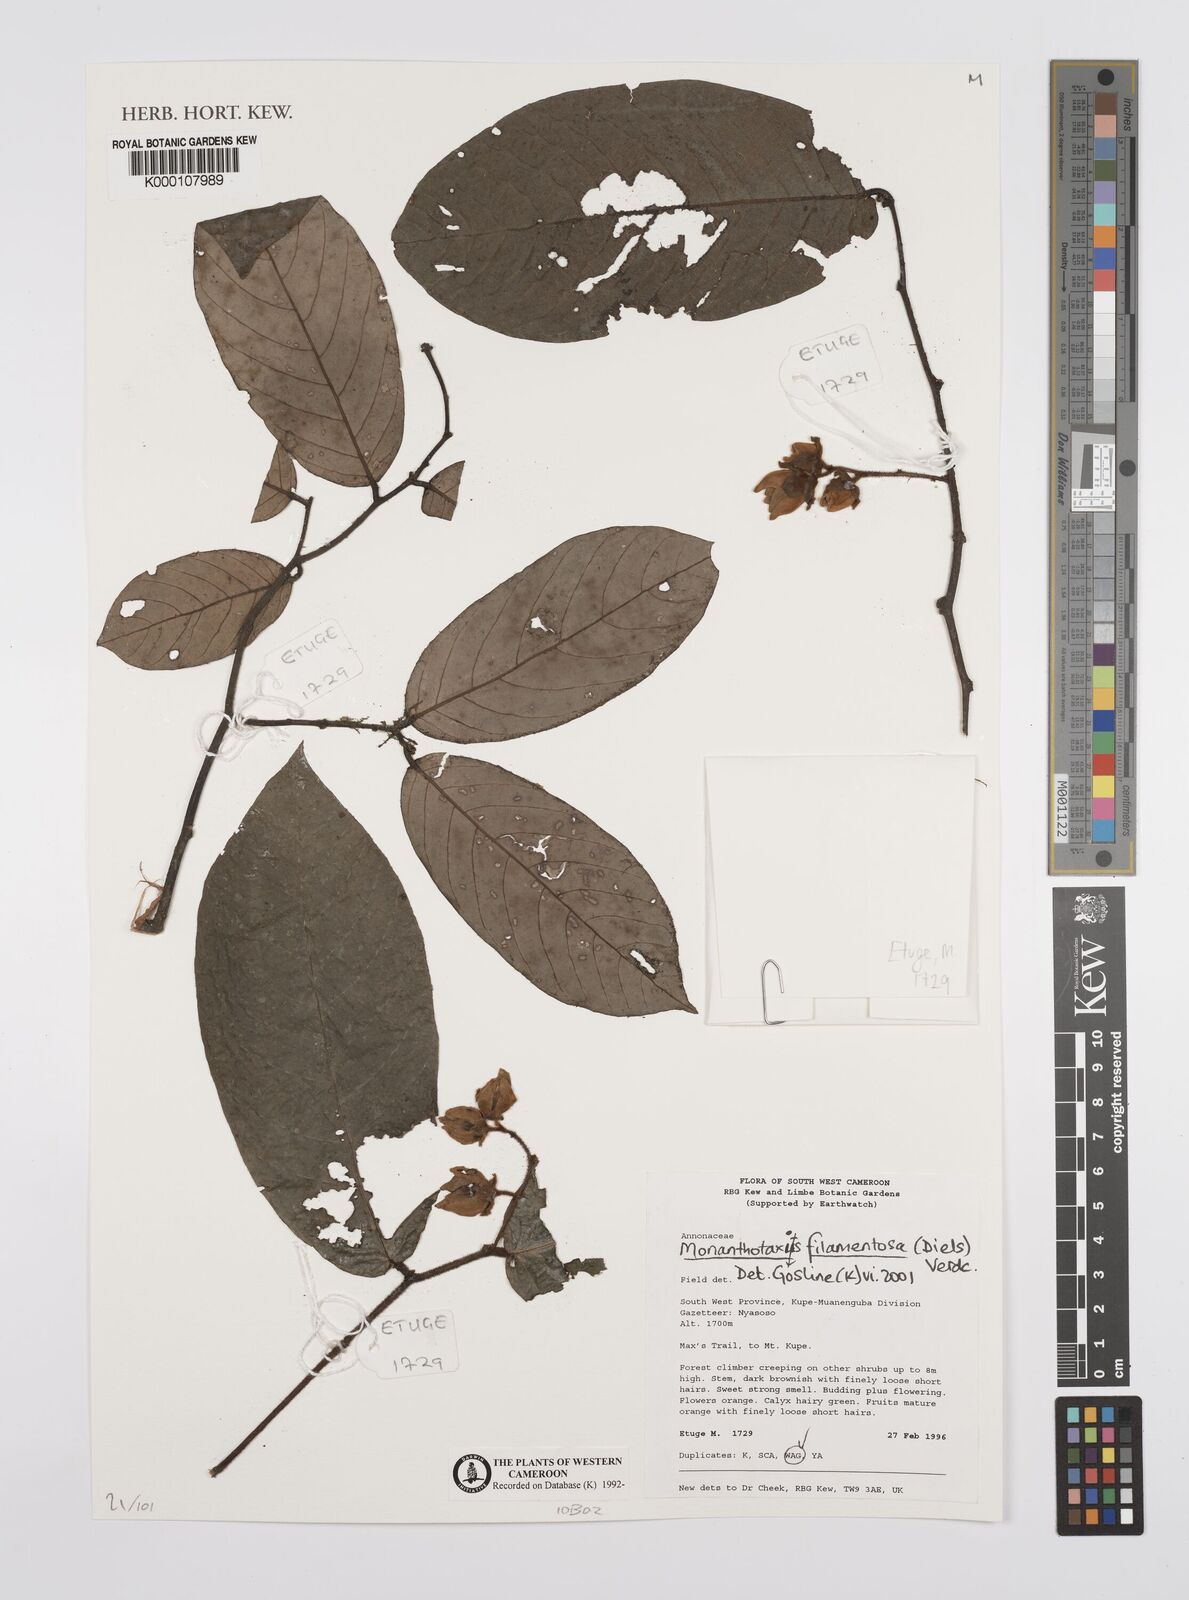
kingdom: Plantae
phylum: Tracheophyta
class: Magnoliopsida
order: Magnoliales
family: Annonaceae
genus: Monanthotaxis
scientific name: Monanthotaxis filamentosa
